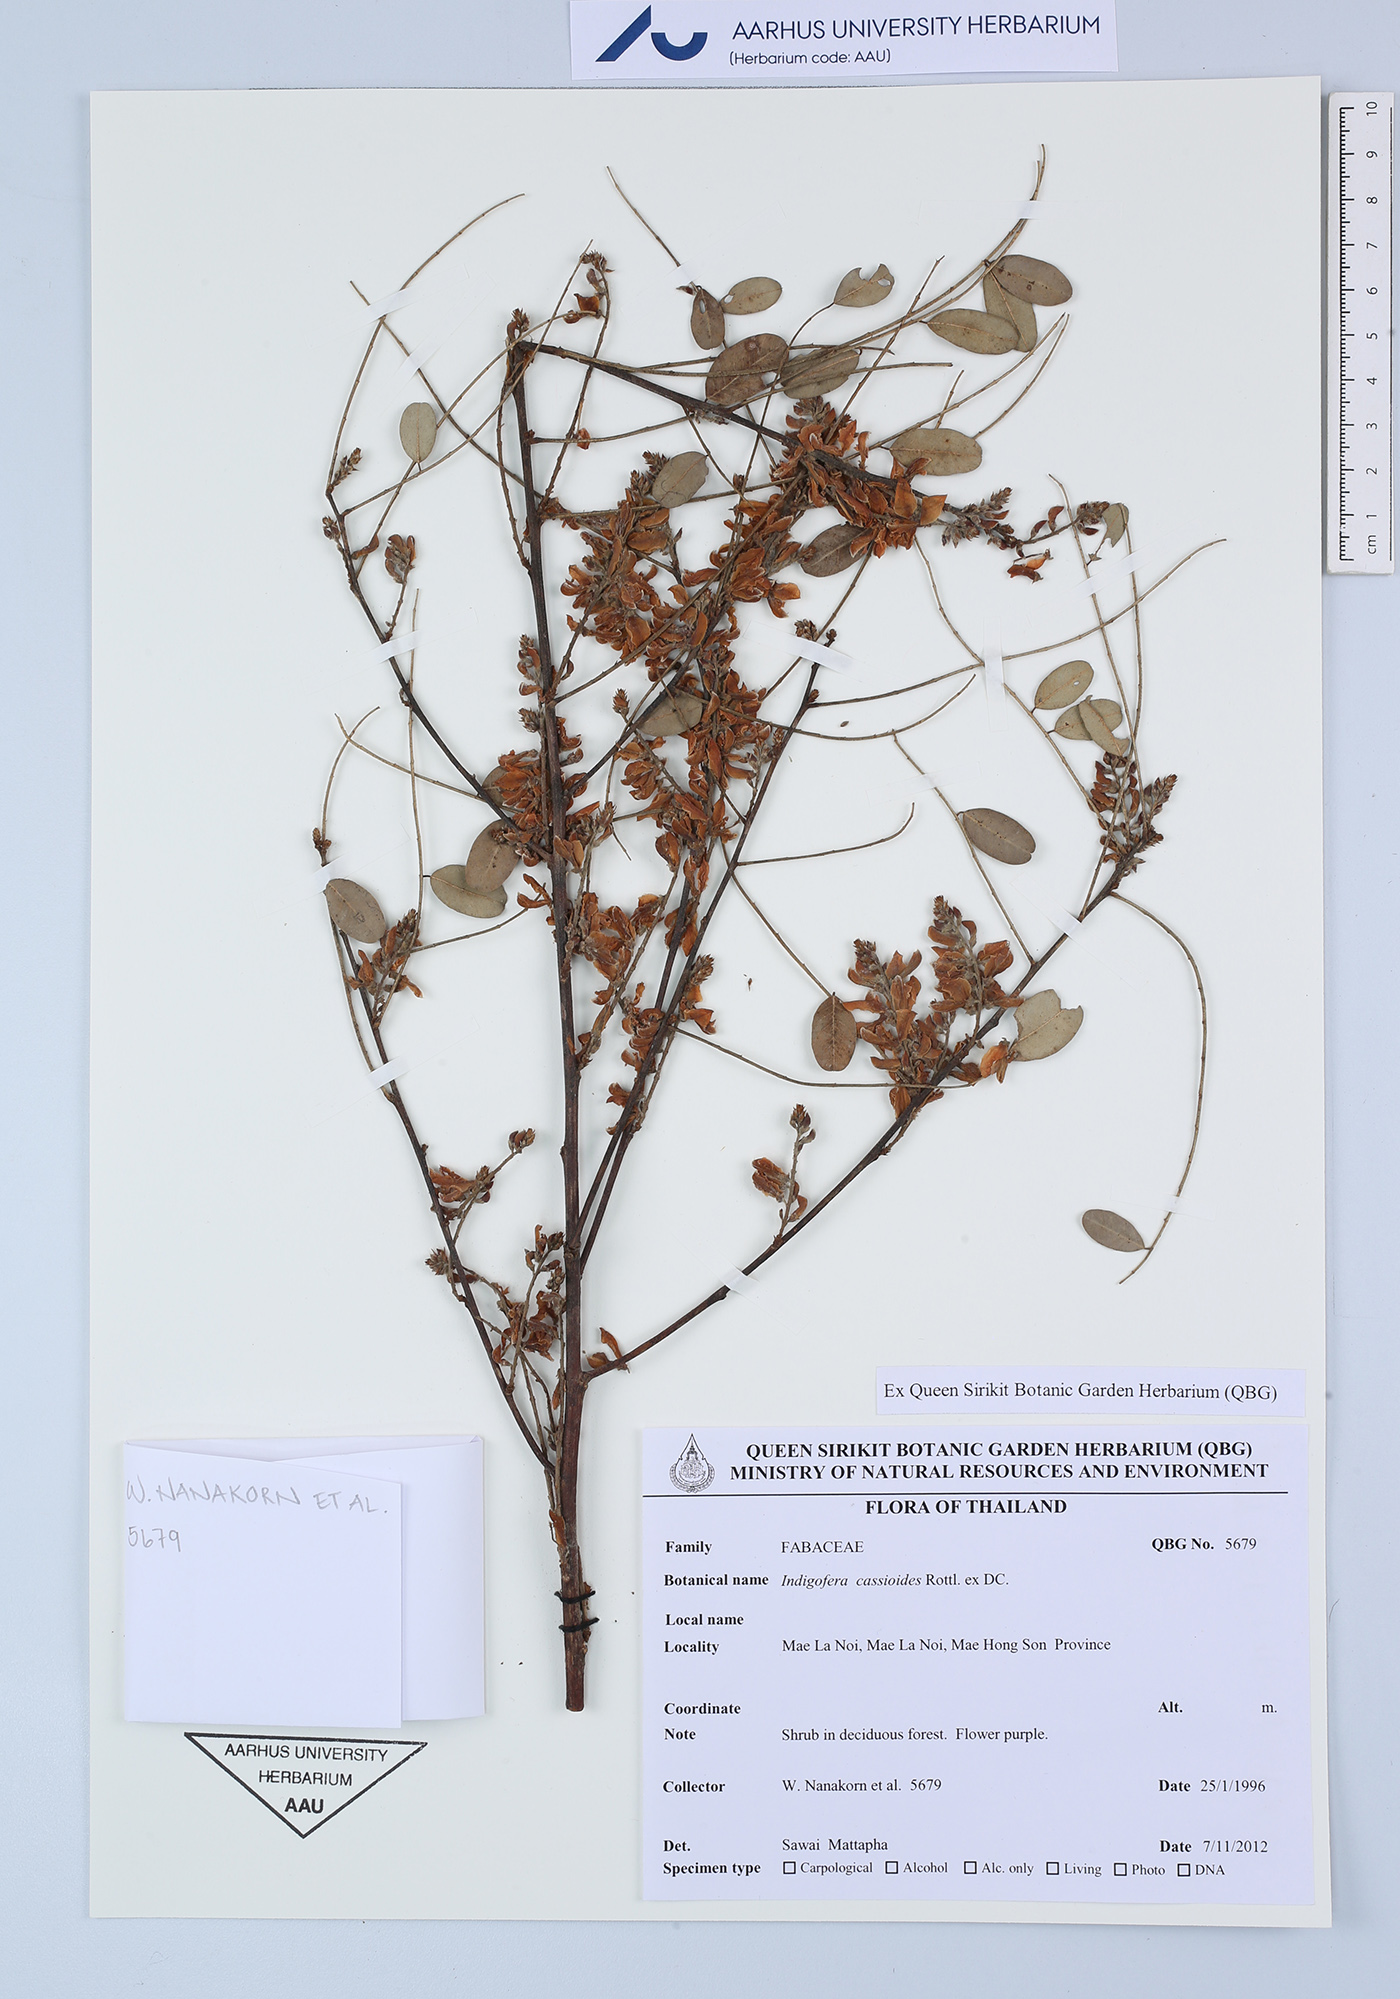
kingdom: Plantae
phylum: Tracheophyta
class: Magnoliopsida
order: Fabales
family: Fabaceae
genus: Indigofera
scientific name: Indigofera cassioides
